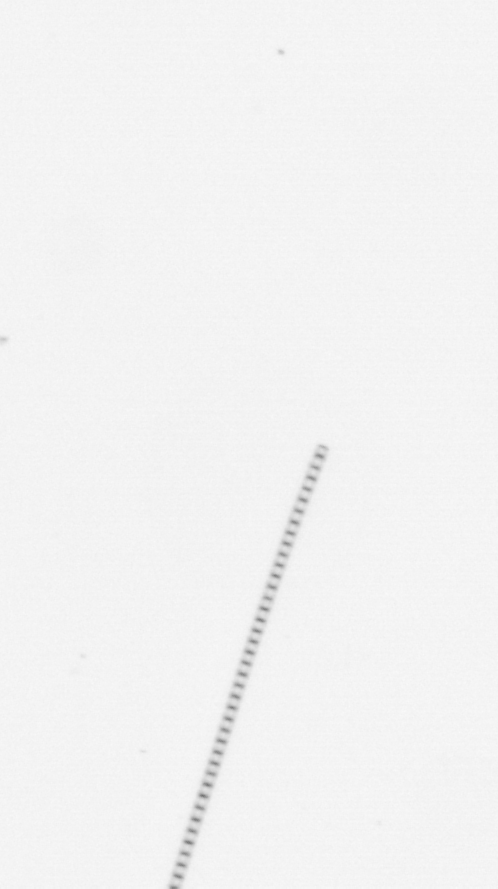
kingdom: Chromista
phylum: Ochrophyta
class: Bacillariophyceae
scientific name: Bacillariophyceae
